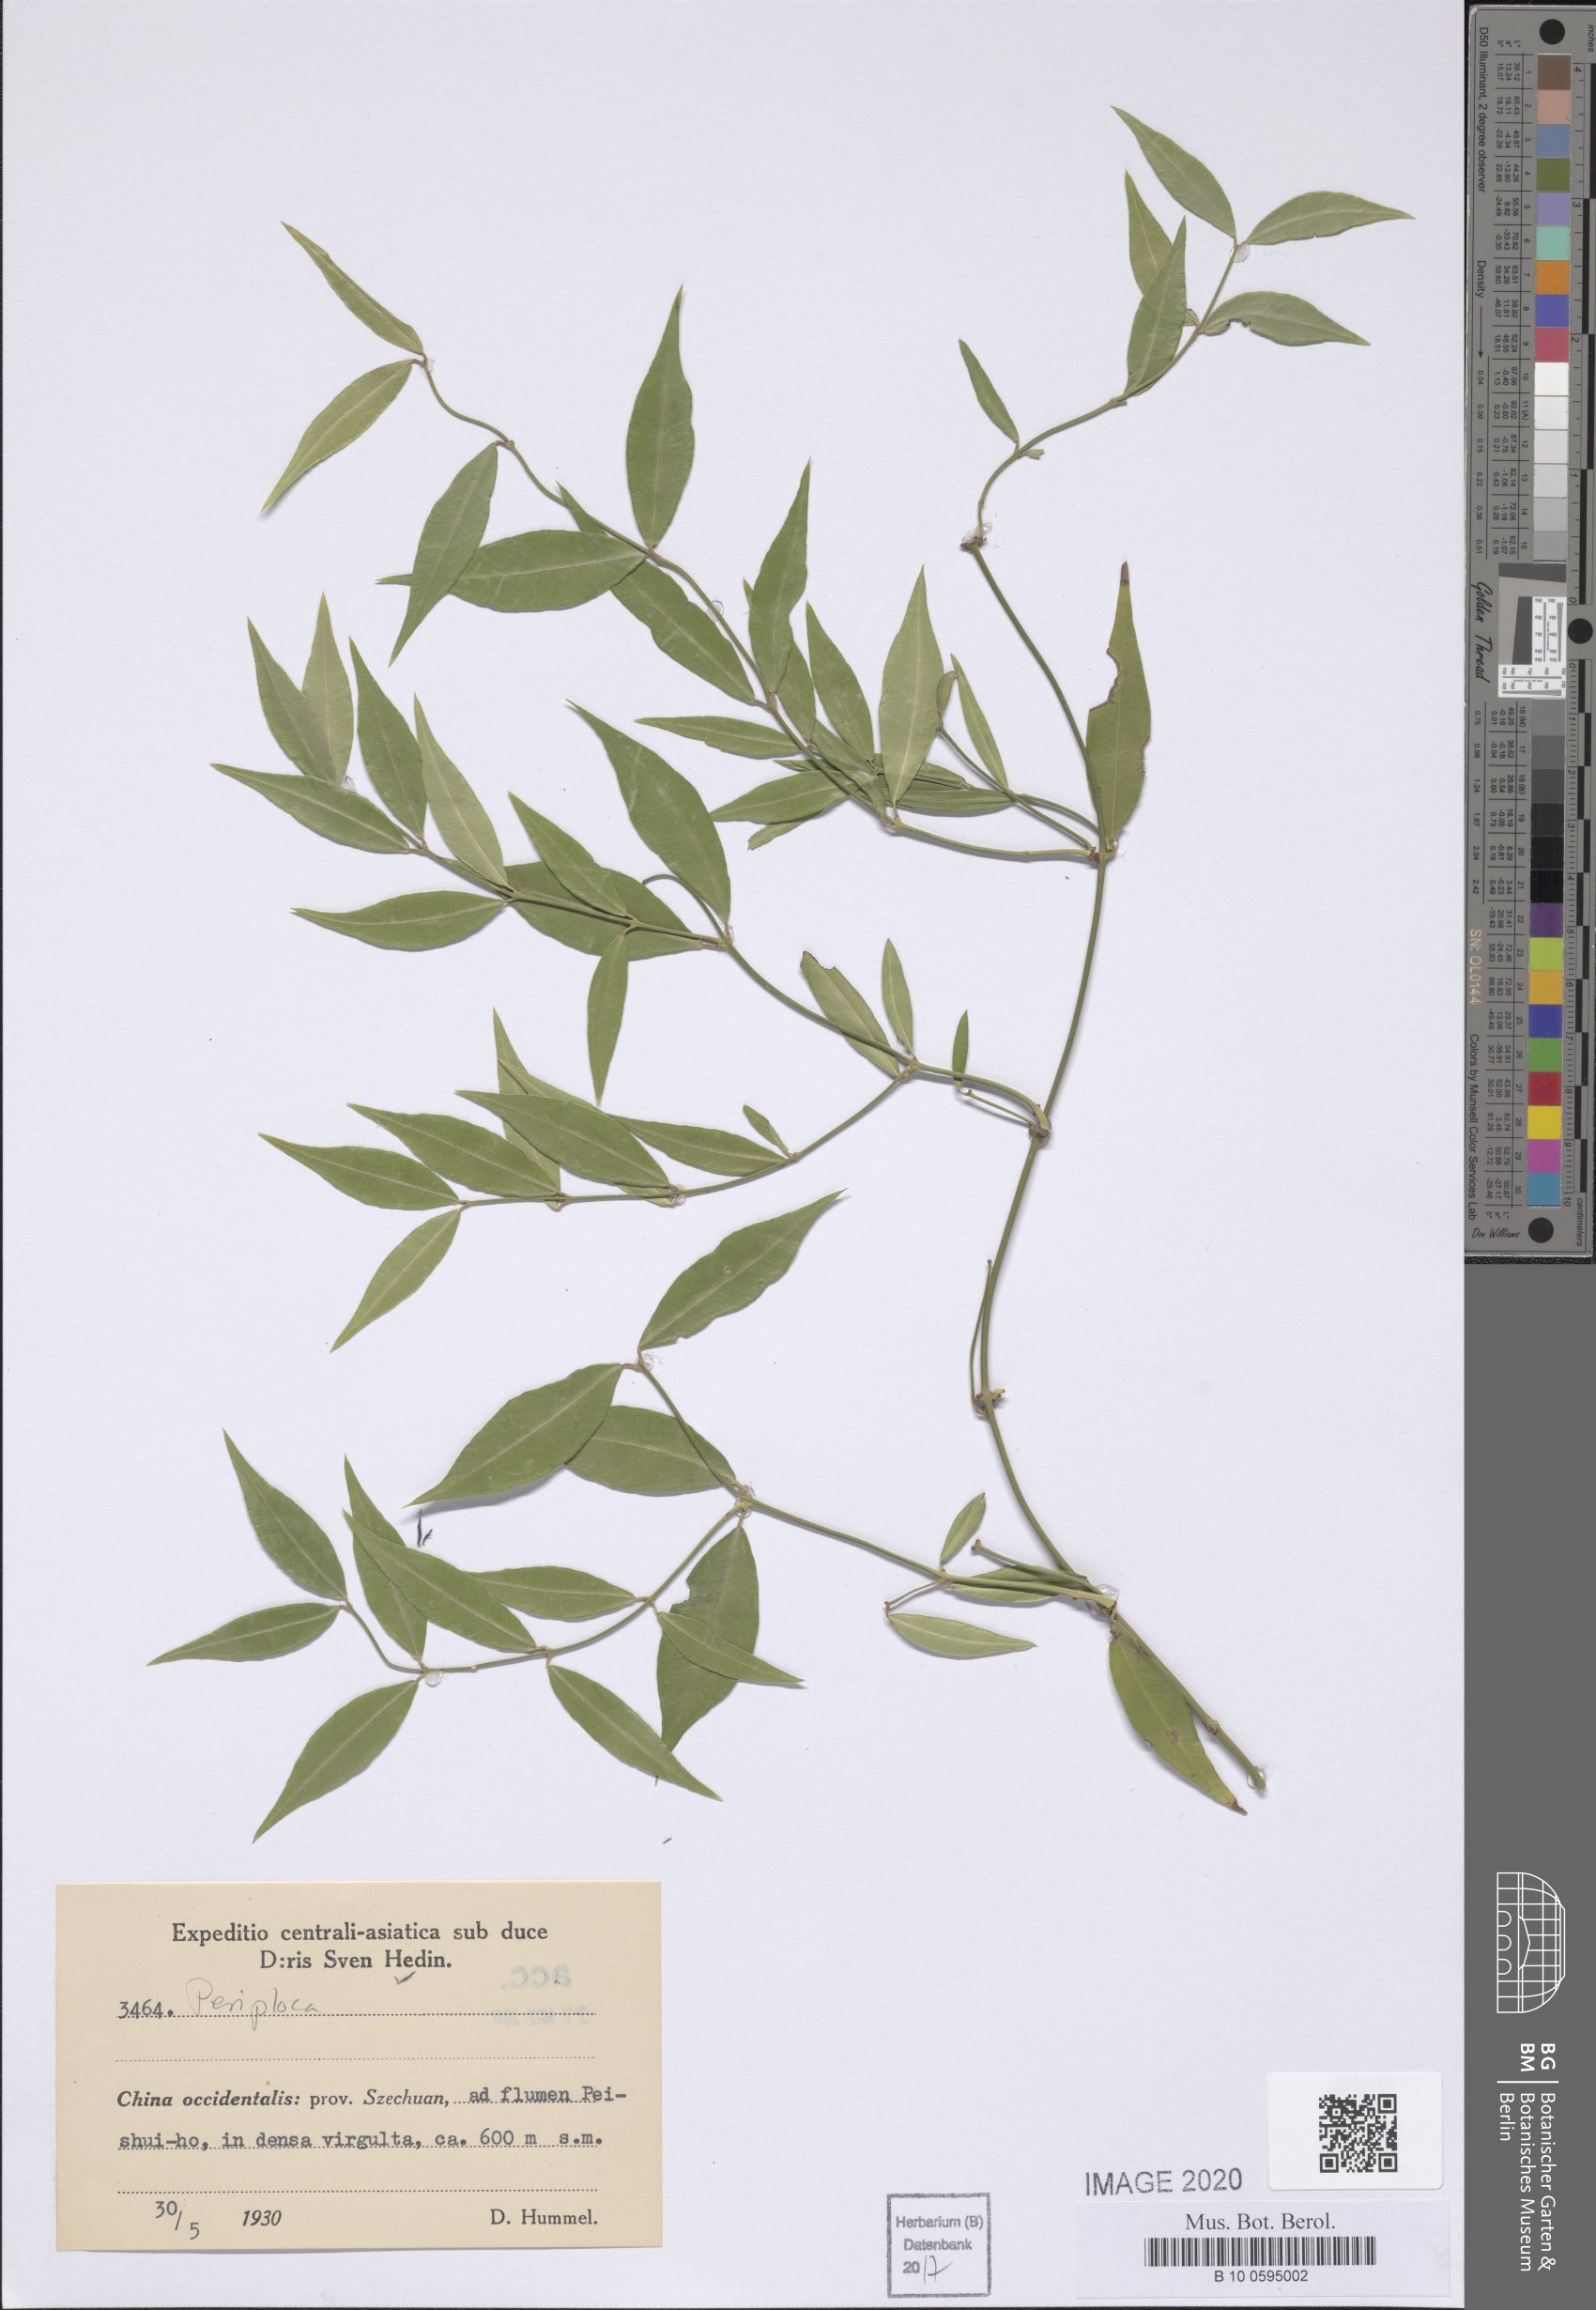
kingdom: Plantae
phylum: Tracheophyta
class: Magnoliopsida
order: Gentianales
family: Apocynaceae
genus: Periploca
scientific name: Periploca
